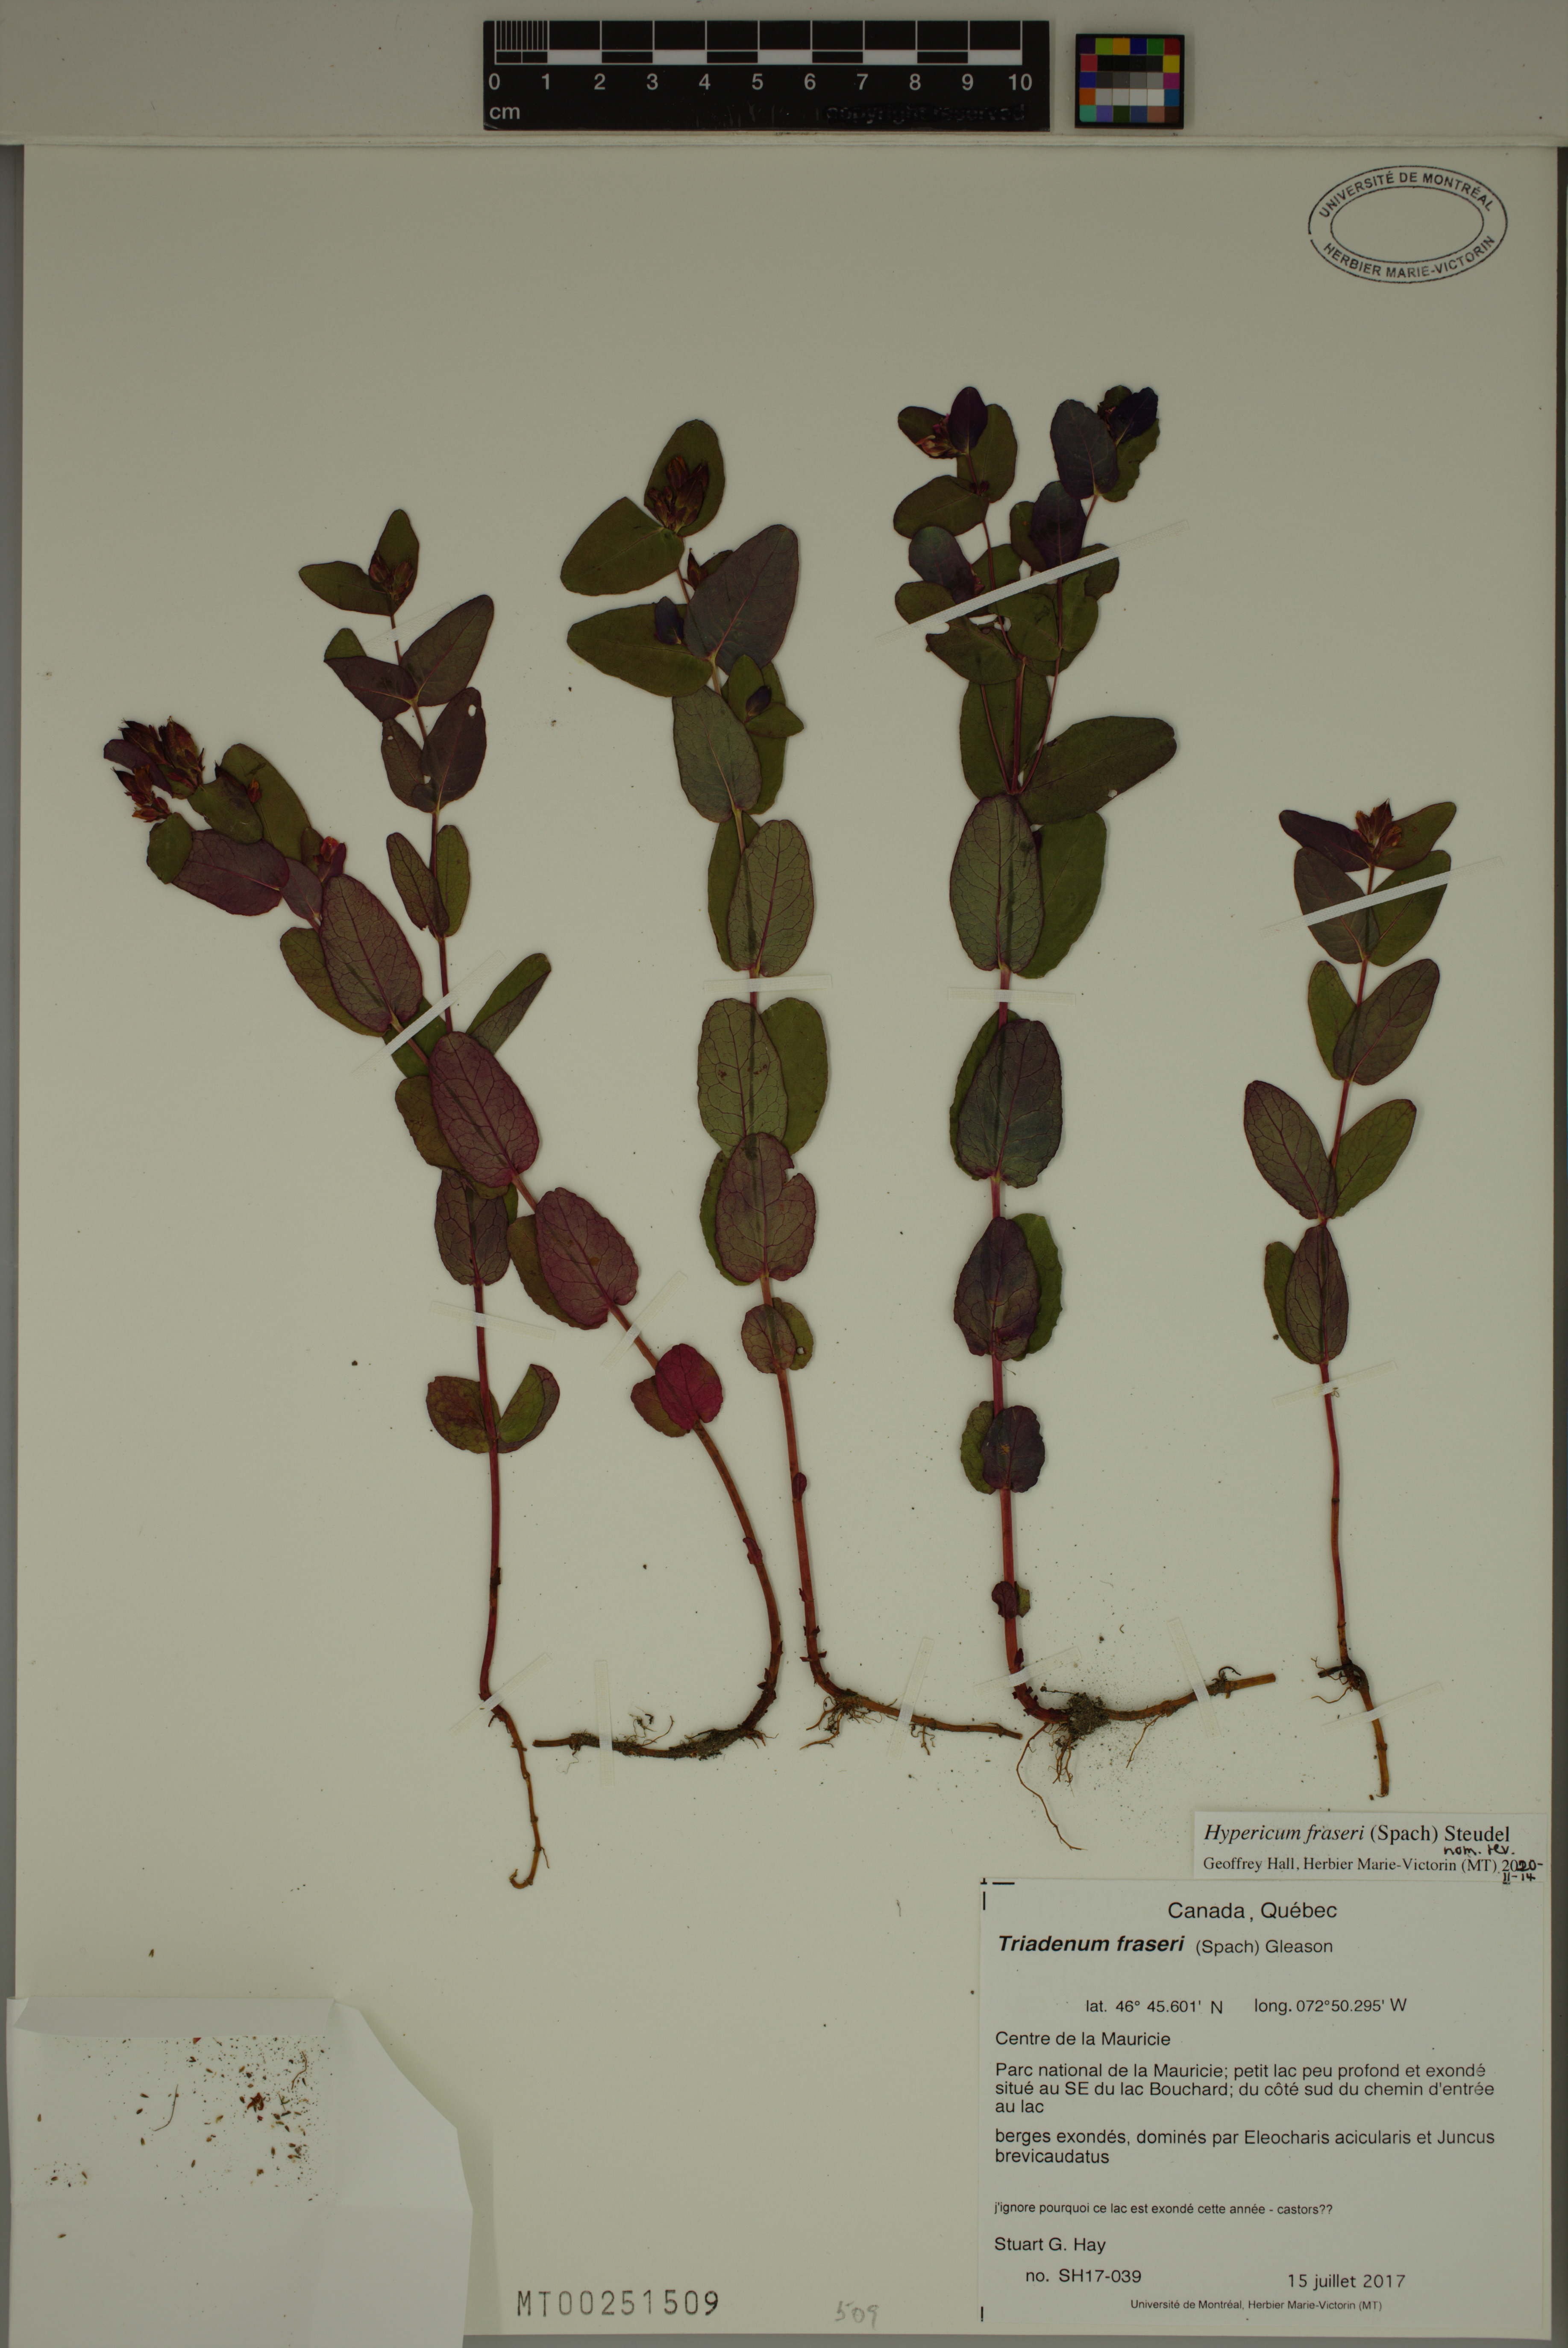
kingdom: Plantae
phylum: Tracheophyta
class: Magnoliopsida
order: Malpighiales
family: Hypericaceae
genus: Triadenum
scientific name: Triadenum fraseri
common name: Fraser's marsh st. johnswort
